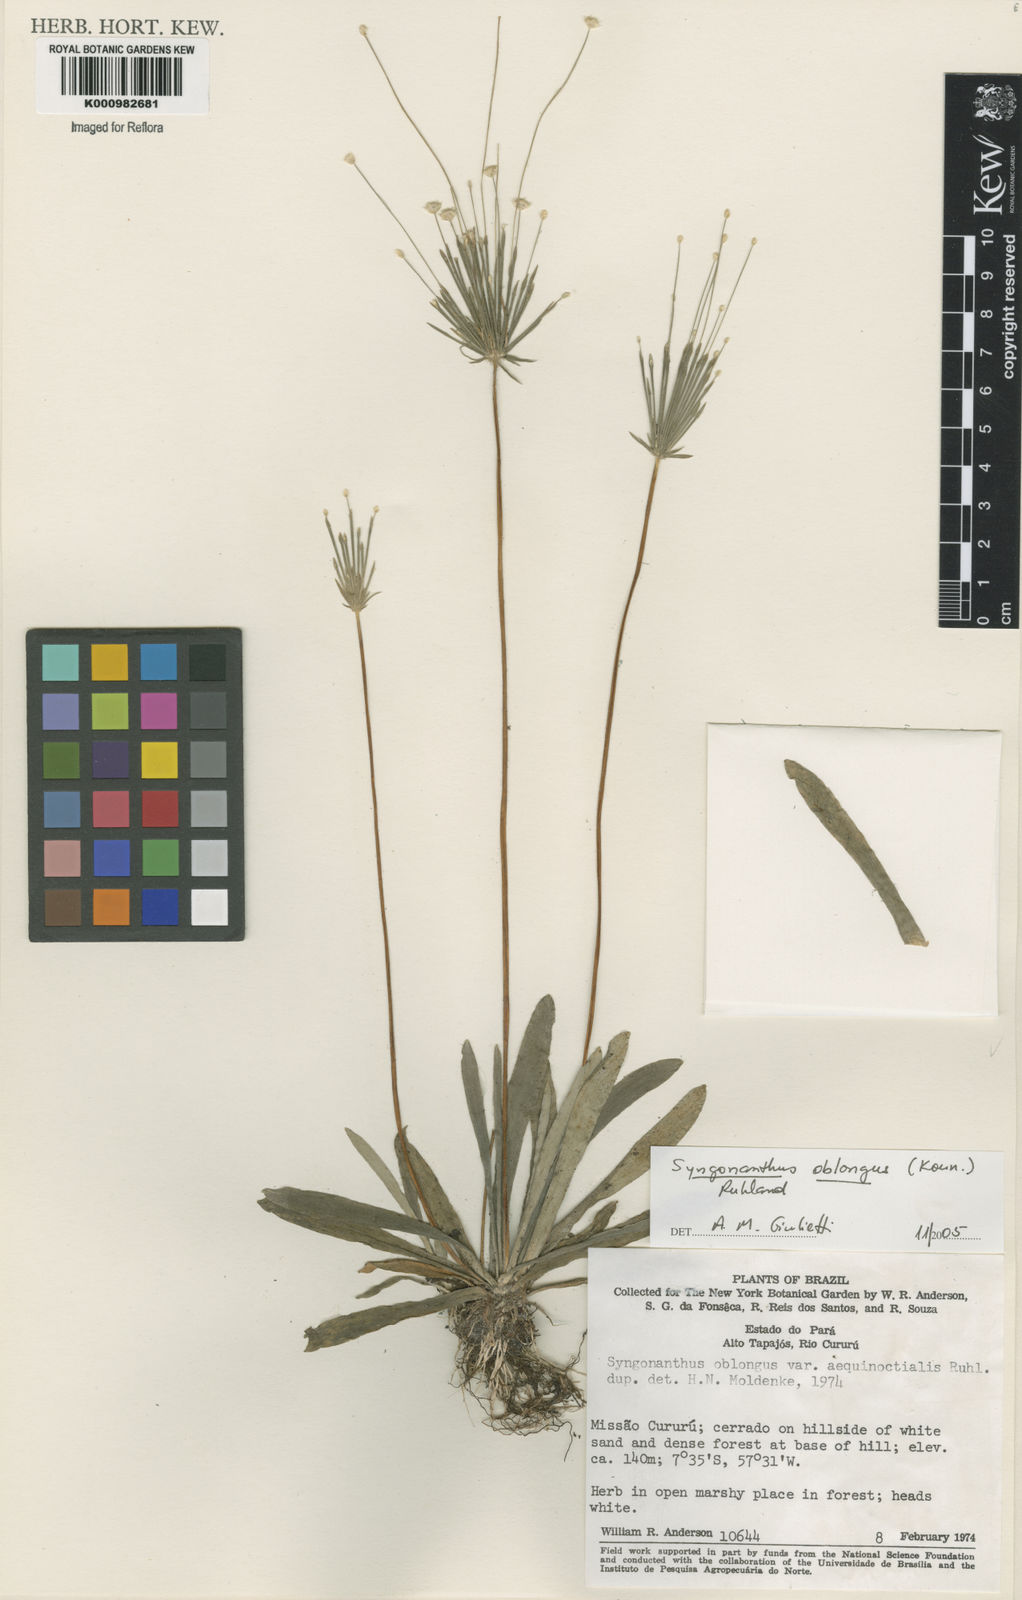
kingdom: Plantae
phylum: Tracheophyta
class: Liliopsida
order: Poales
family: Eriocaulaceae
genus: Syngonanthus
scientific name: Syngonanthus
